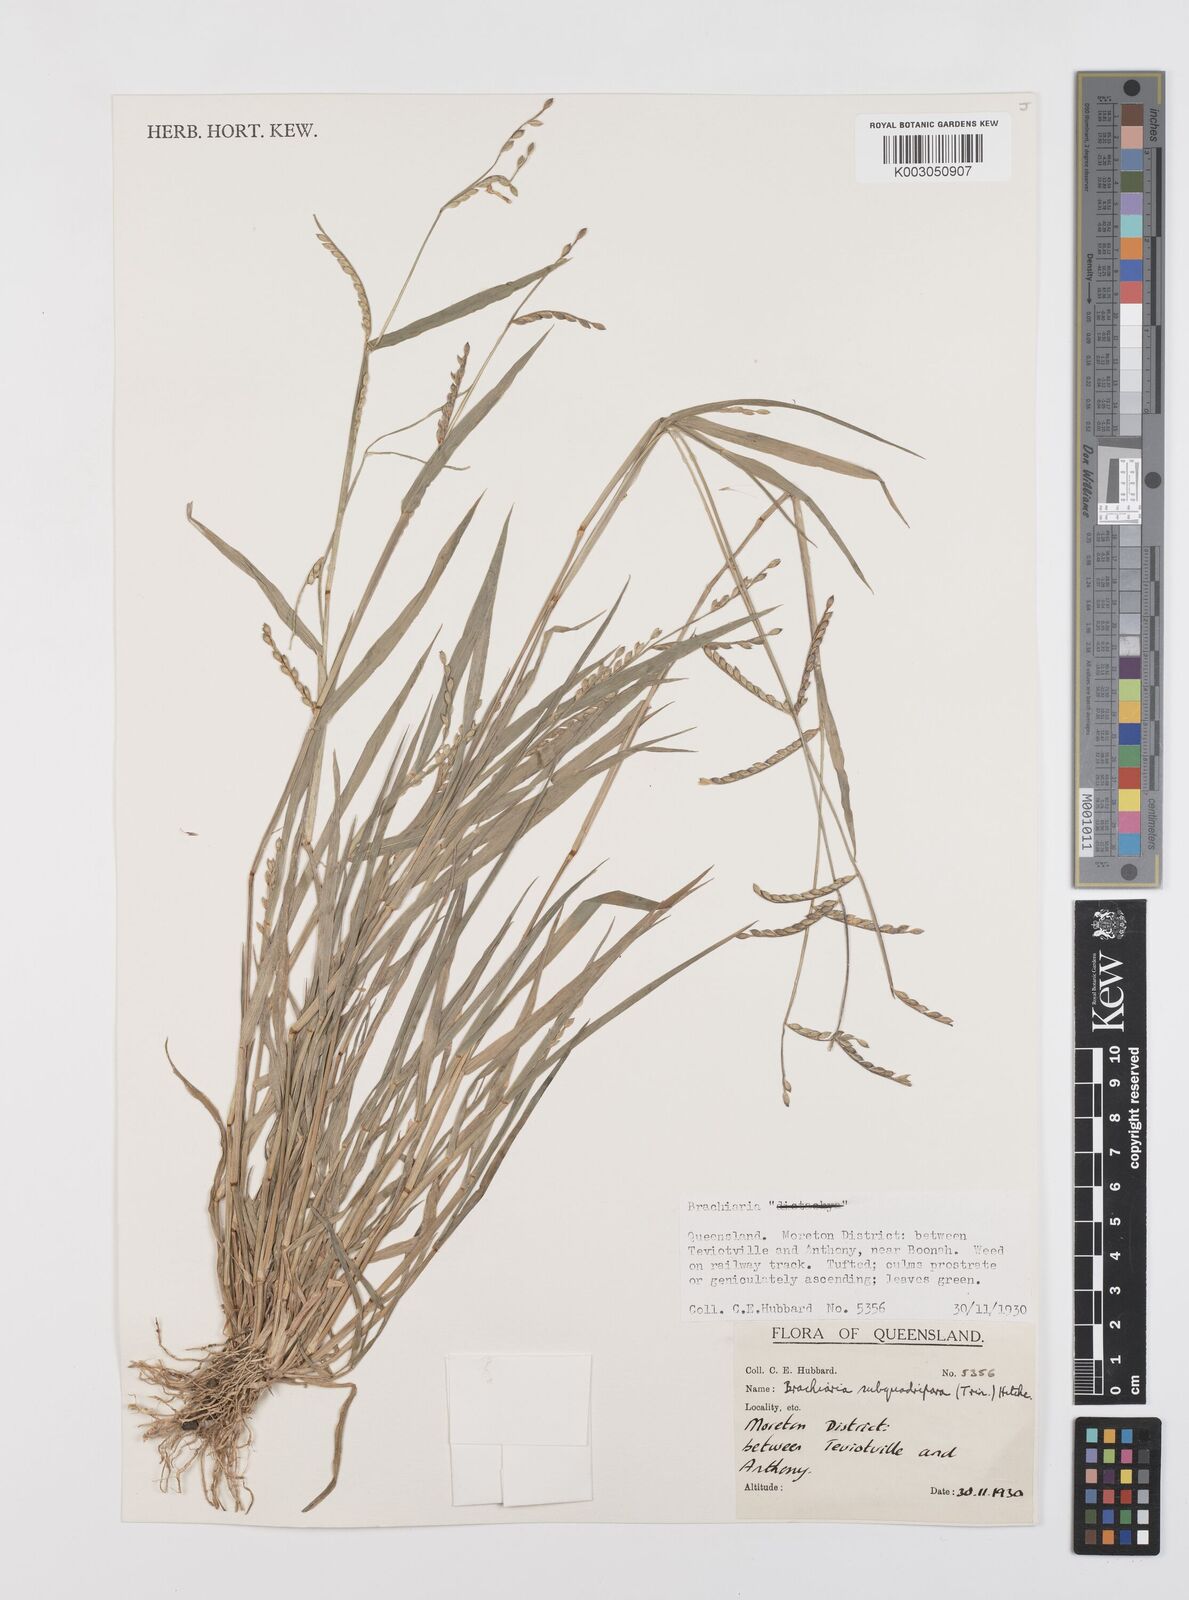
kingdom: Plantae
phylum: Tracheophyta
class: Liliopsida
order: Poales
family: Poaceae
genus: Urochloa
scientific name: Urochloa subquadripara
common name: Armgrass millet
